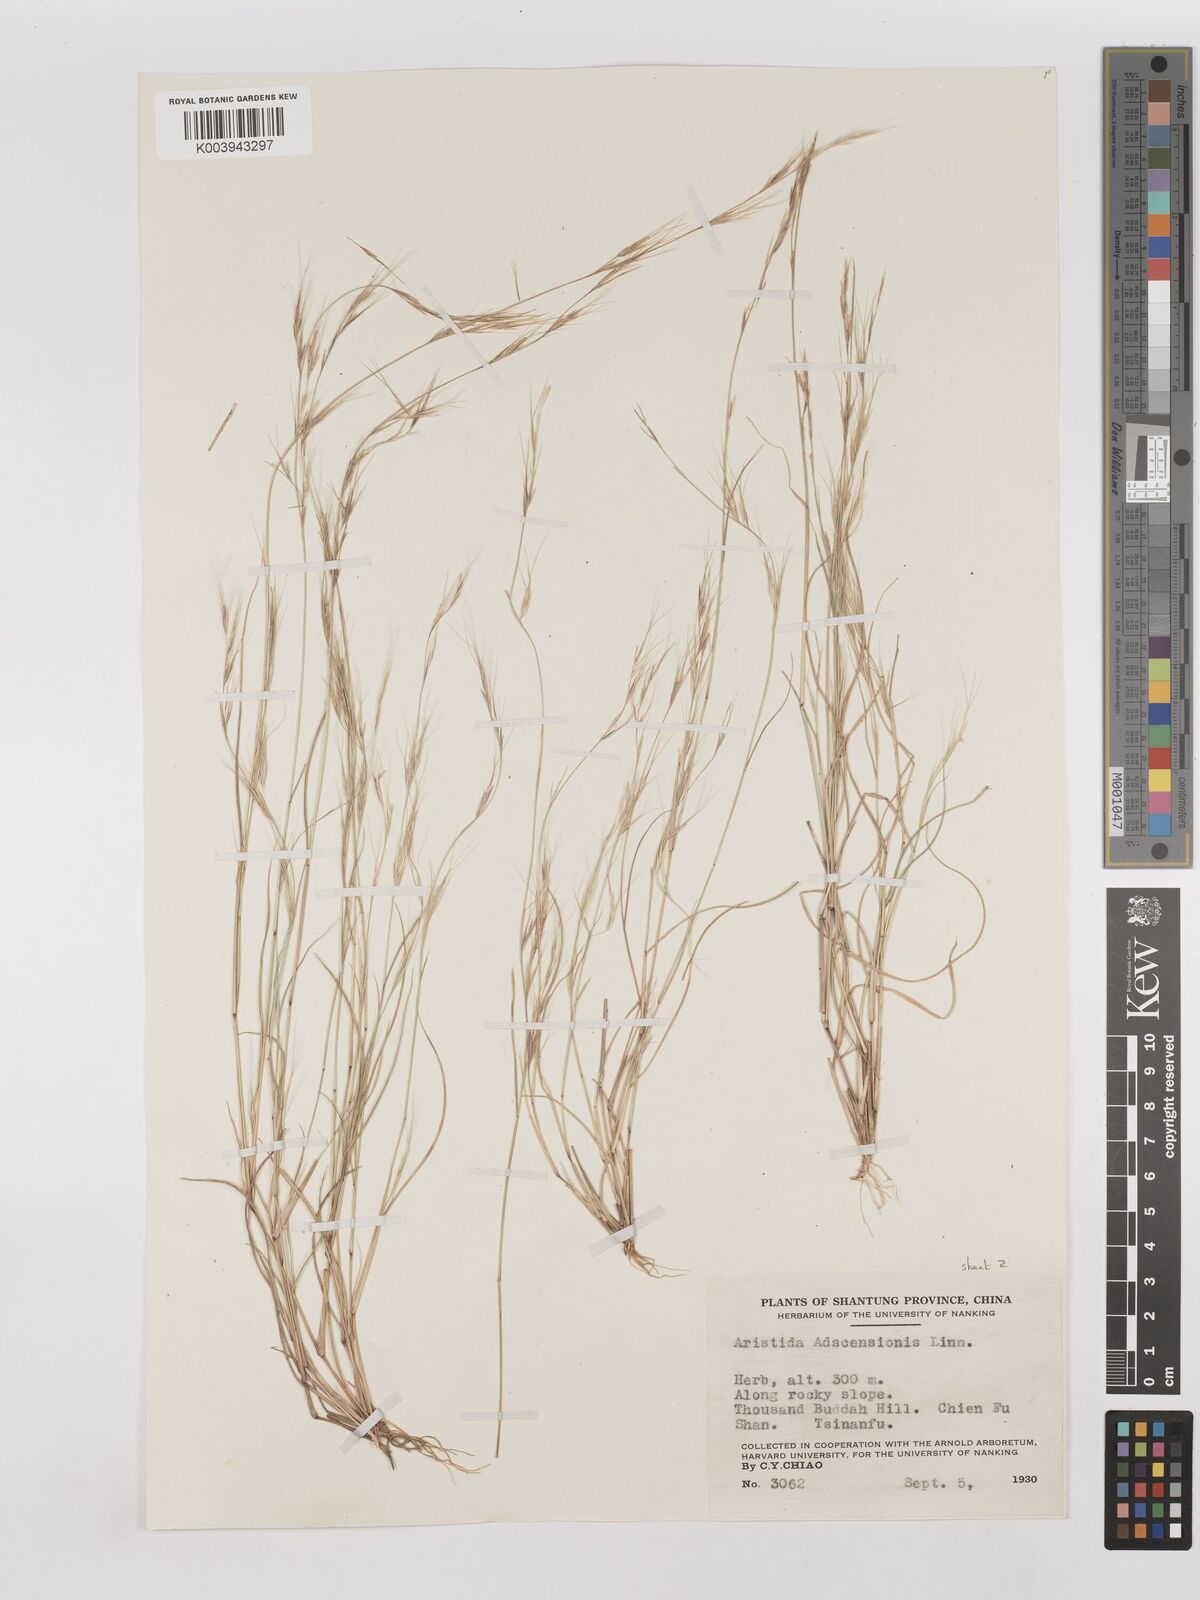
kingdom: Plantae
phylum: Tracheophyta
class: Liliopsida
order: Poales
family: Poaceae
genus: Aristida
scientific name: Aristida adscensionis
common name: Sixweeks threeawn
